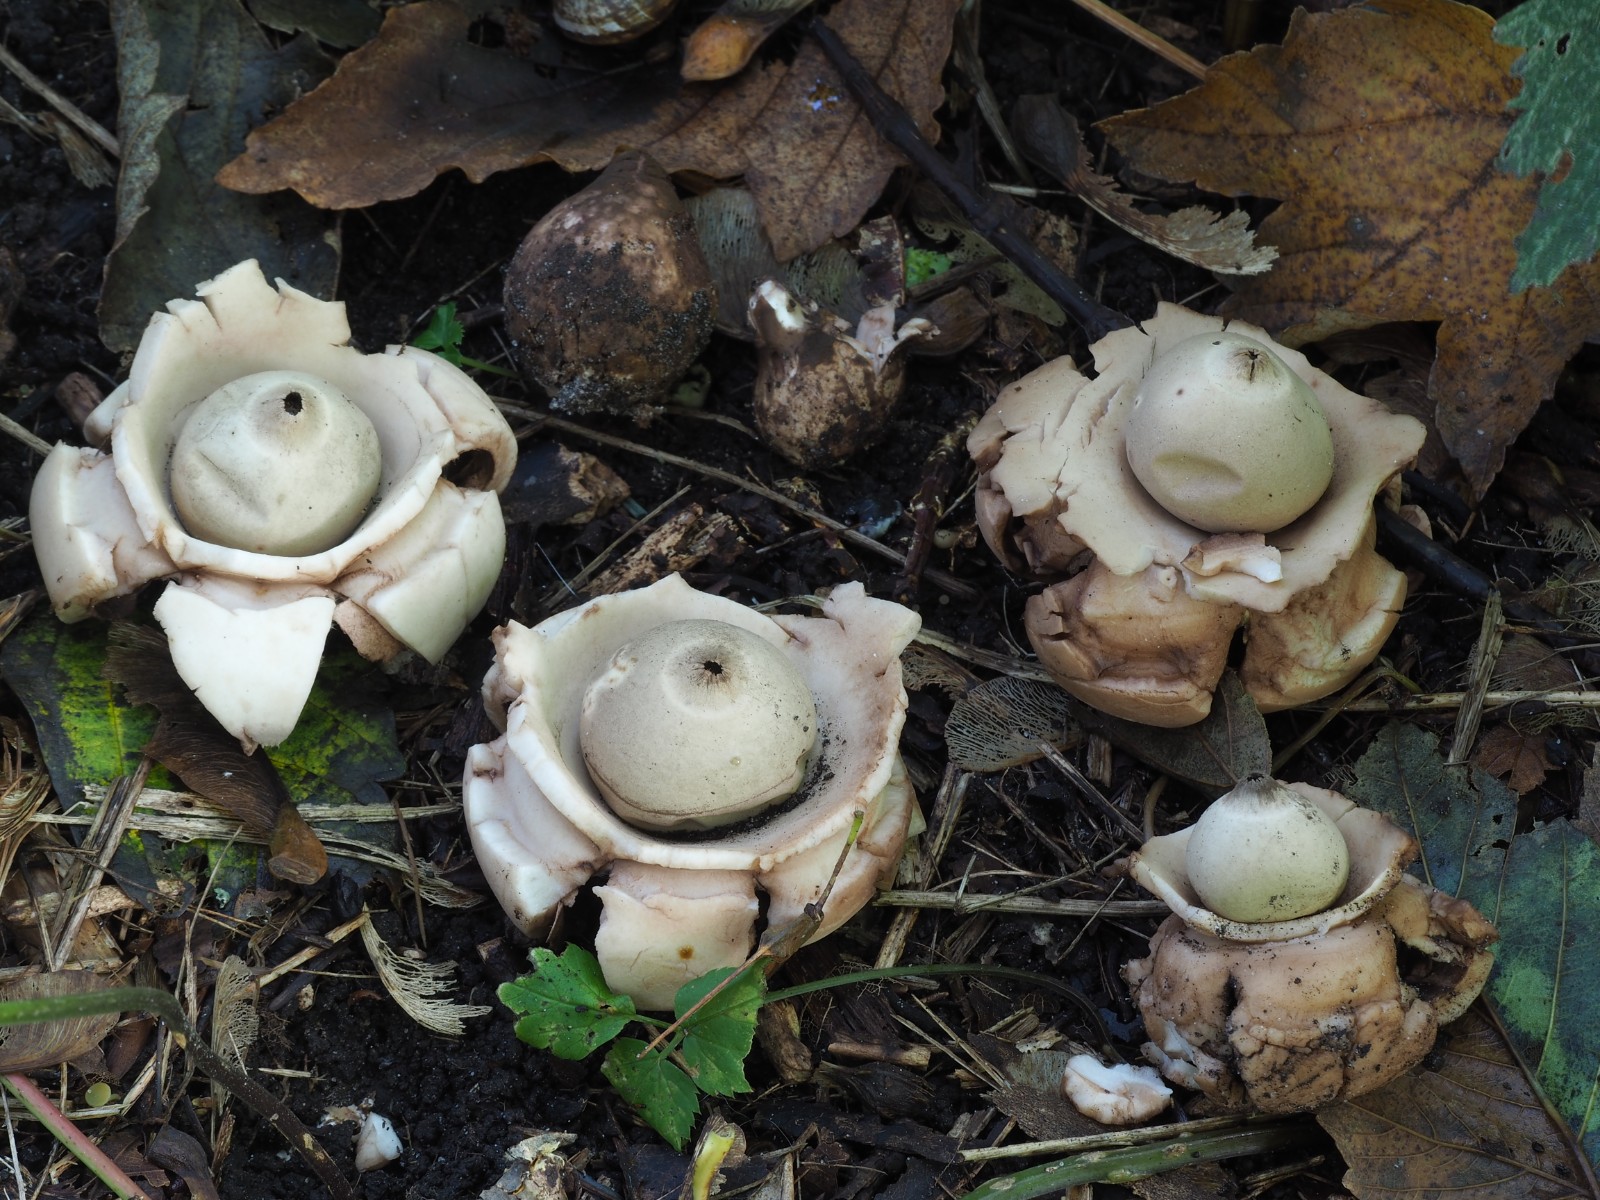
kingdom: Fungi
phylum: Basidiomycota
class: Agaricomycetes
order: Geastrales
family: Geastraceae
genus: Geastrum
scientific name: Geastrum michelianum
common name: kødet stjernebold
